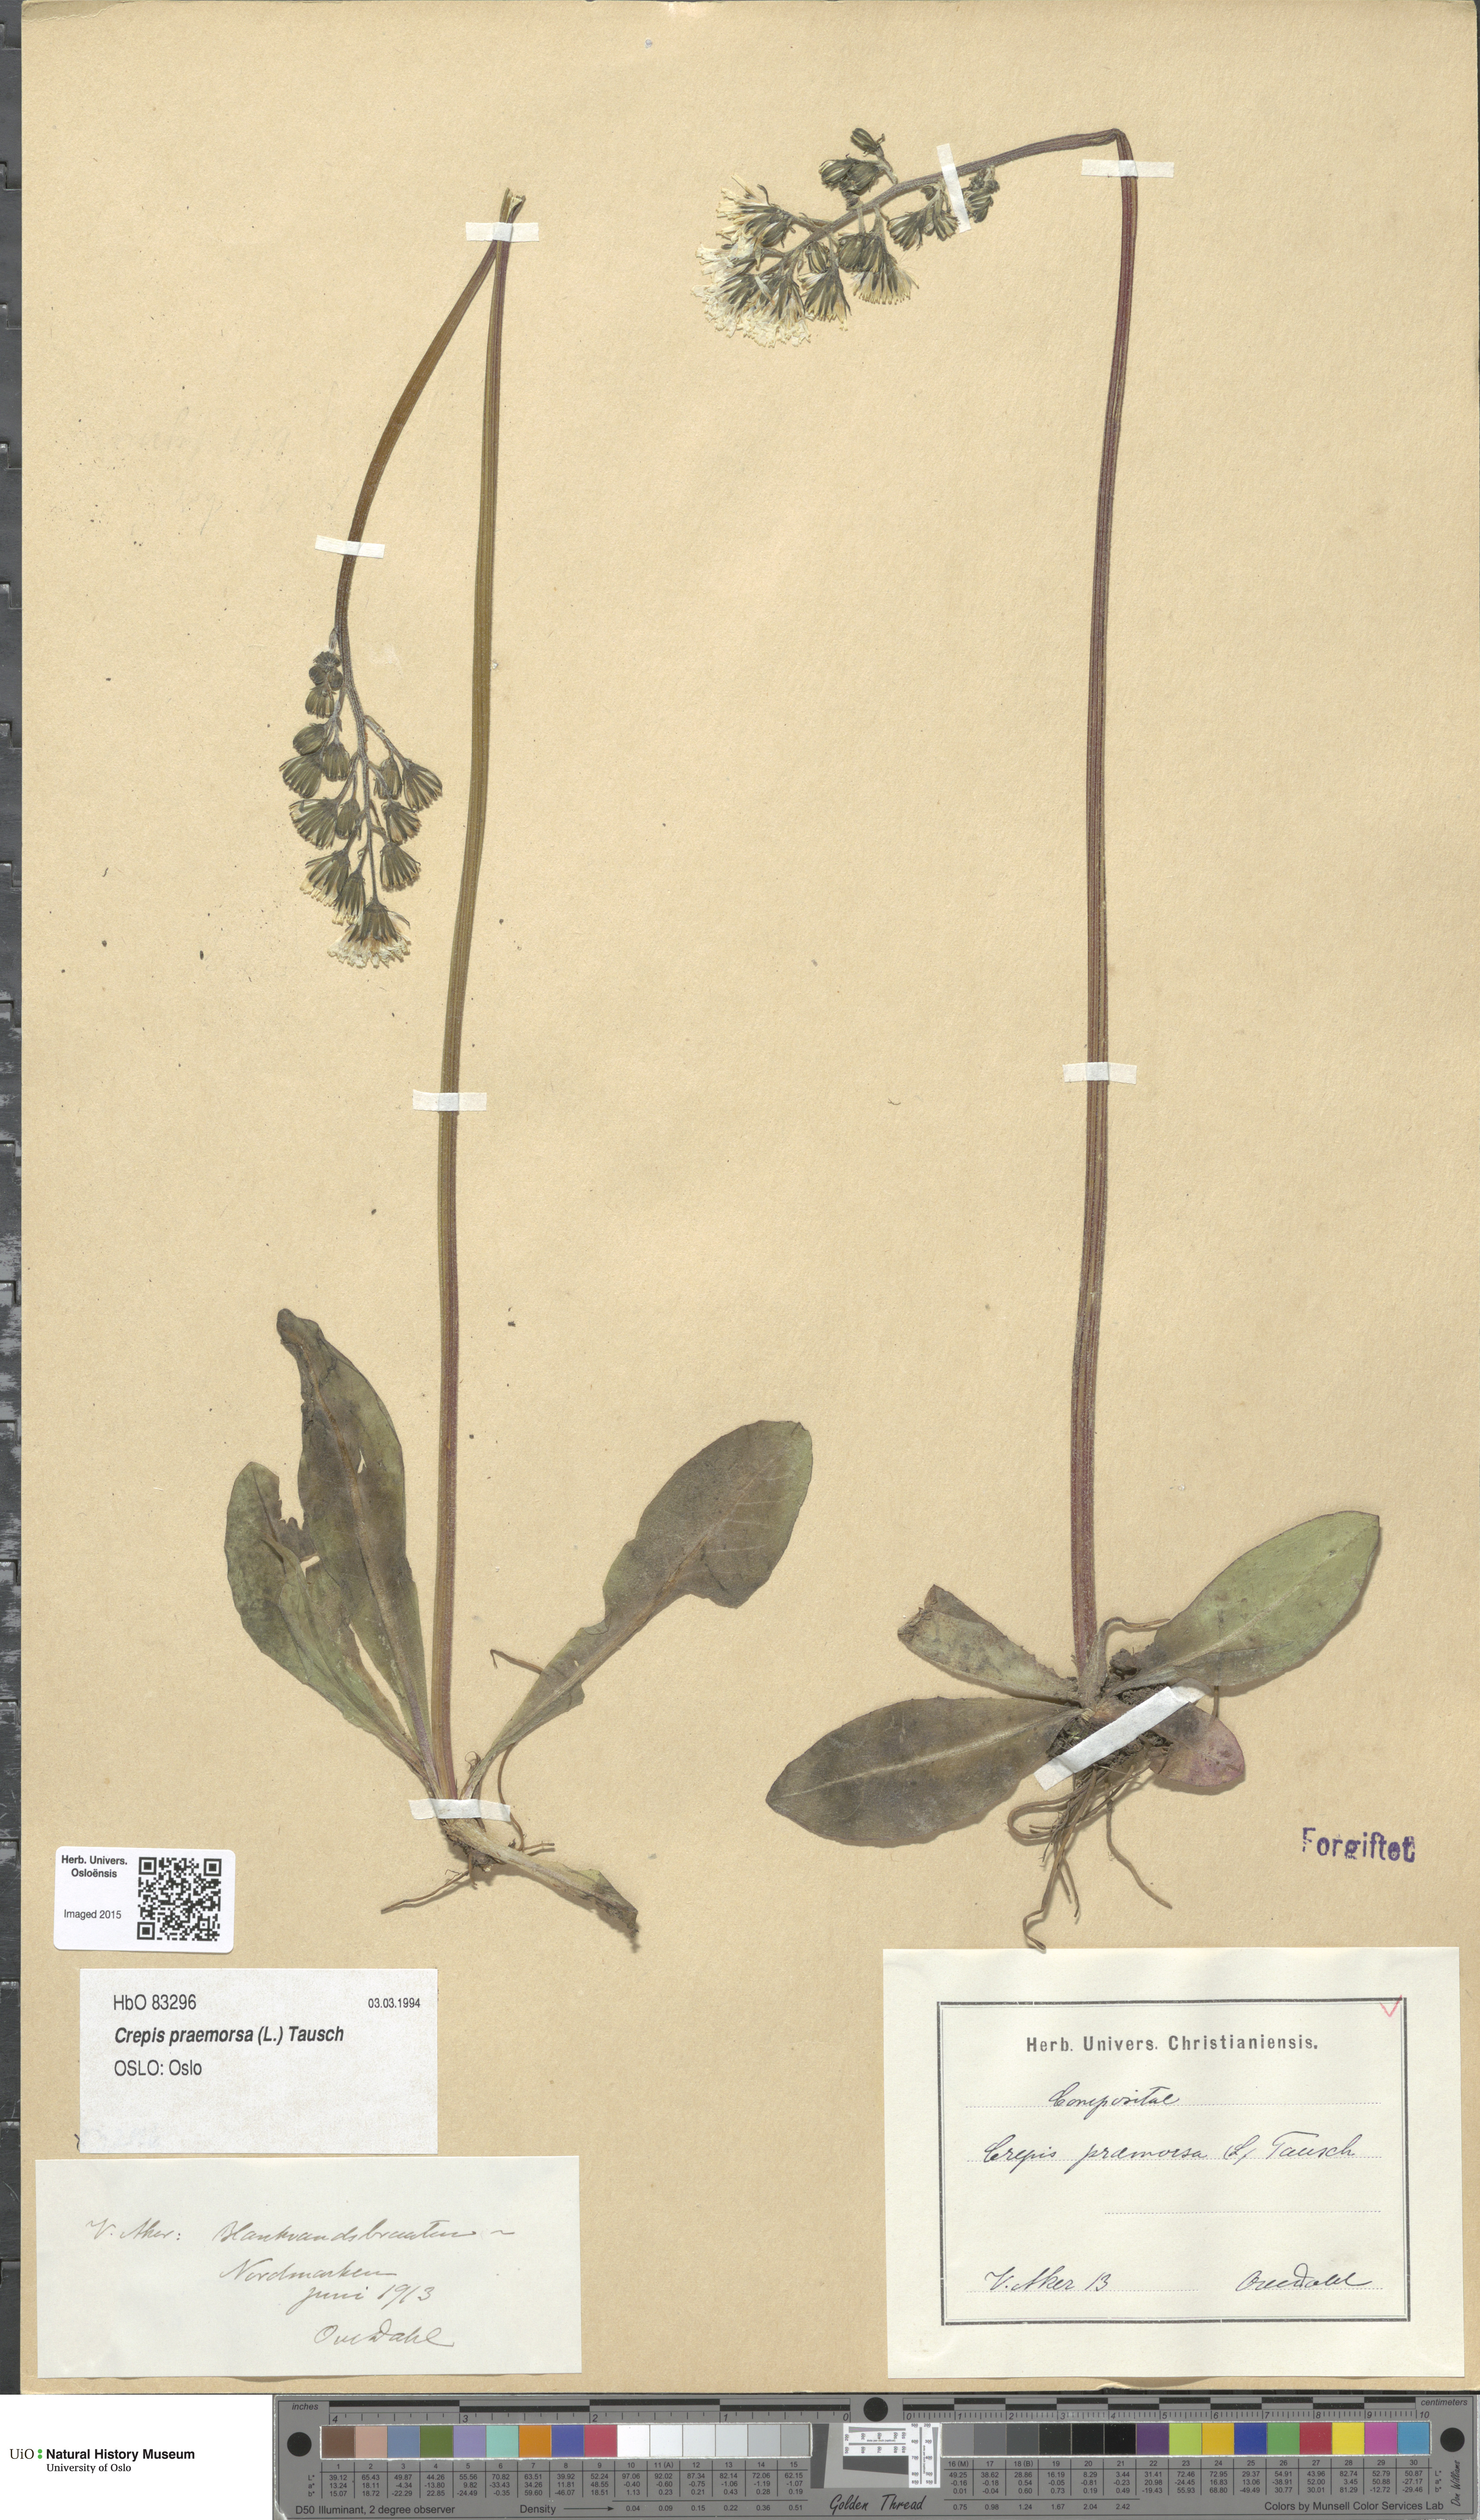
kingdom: Plantae
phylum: Tracheophyta
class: Magnoliopsida
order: Asterales
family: Asteraceae
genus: Crepis
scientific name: Crepis praemorsa
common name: Leafless hawk's-beard
